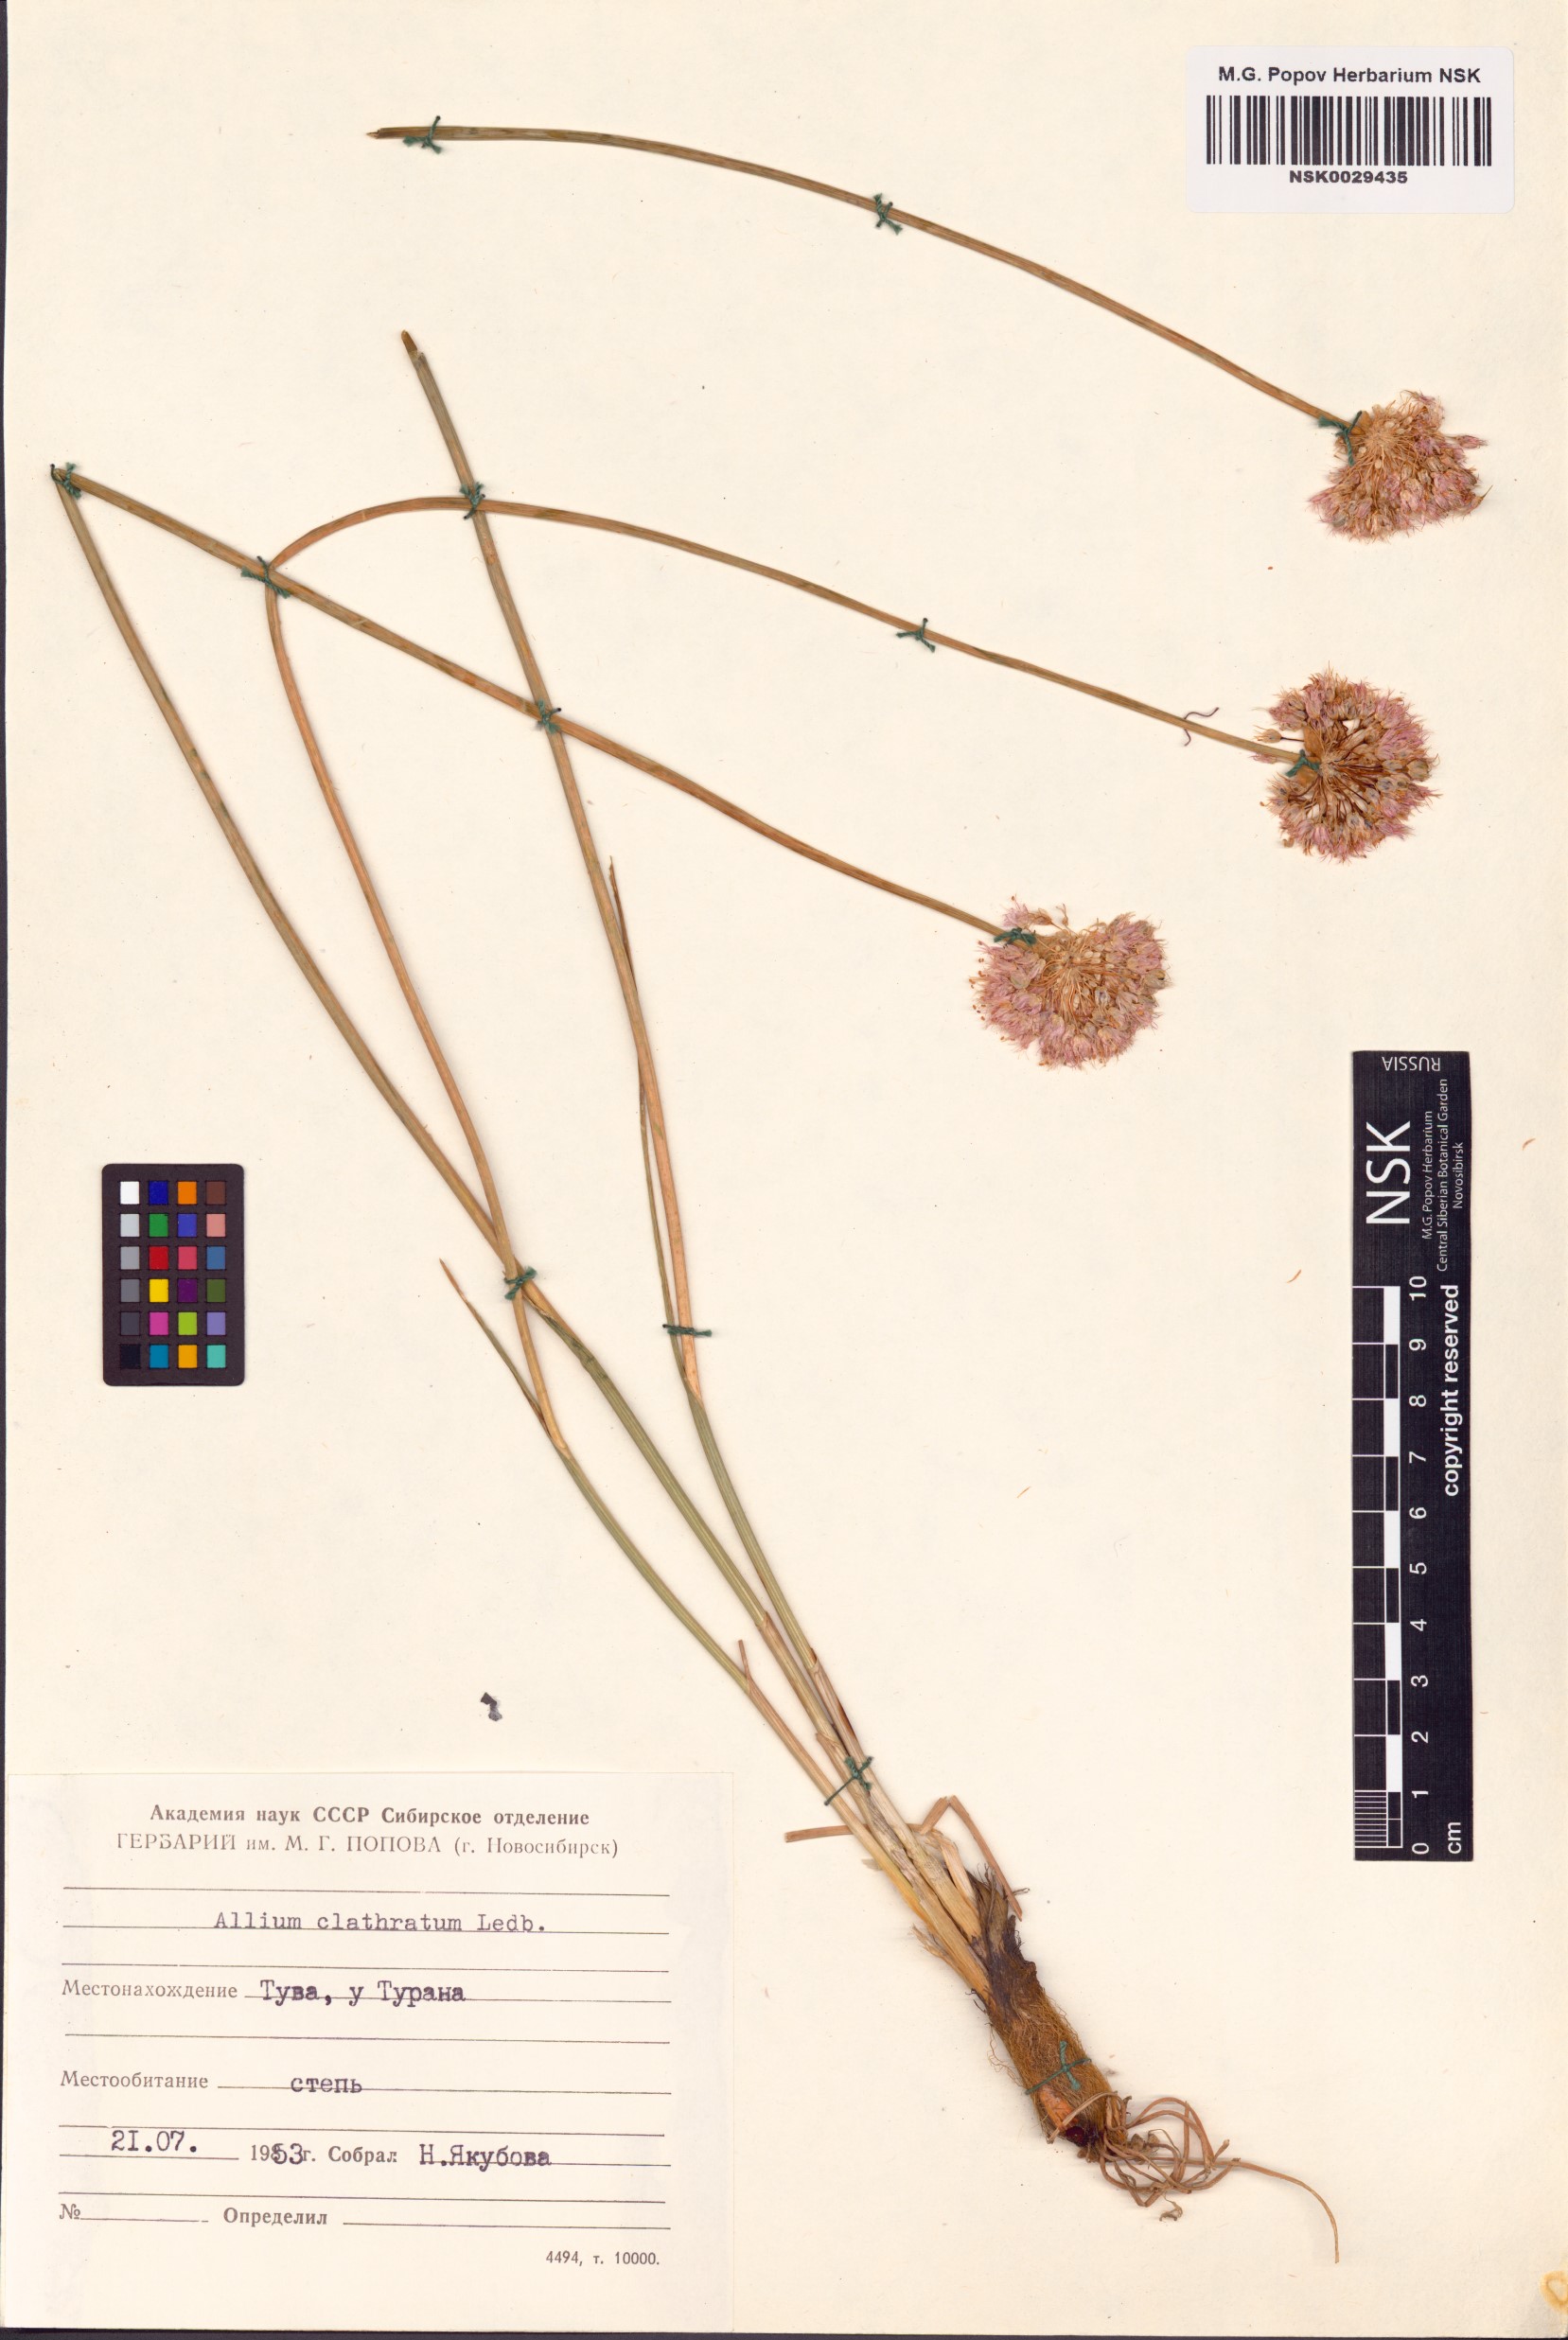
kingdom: Plantae
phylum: Tracheophyta
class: Liliopsida
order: Asparagales
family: Amaryllidaceae
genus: Allium
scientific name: Allium clathratum
